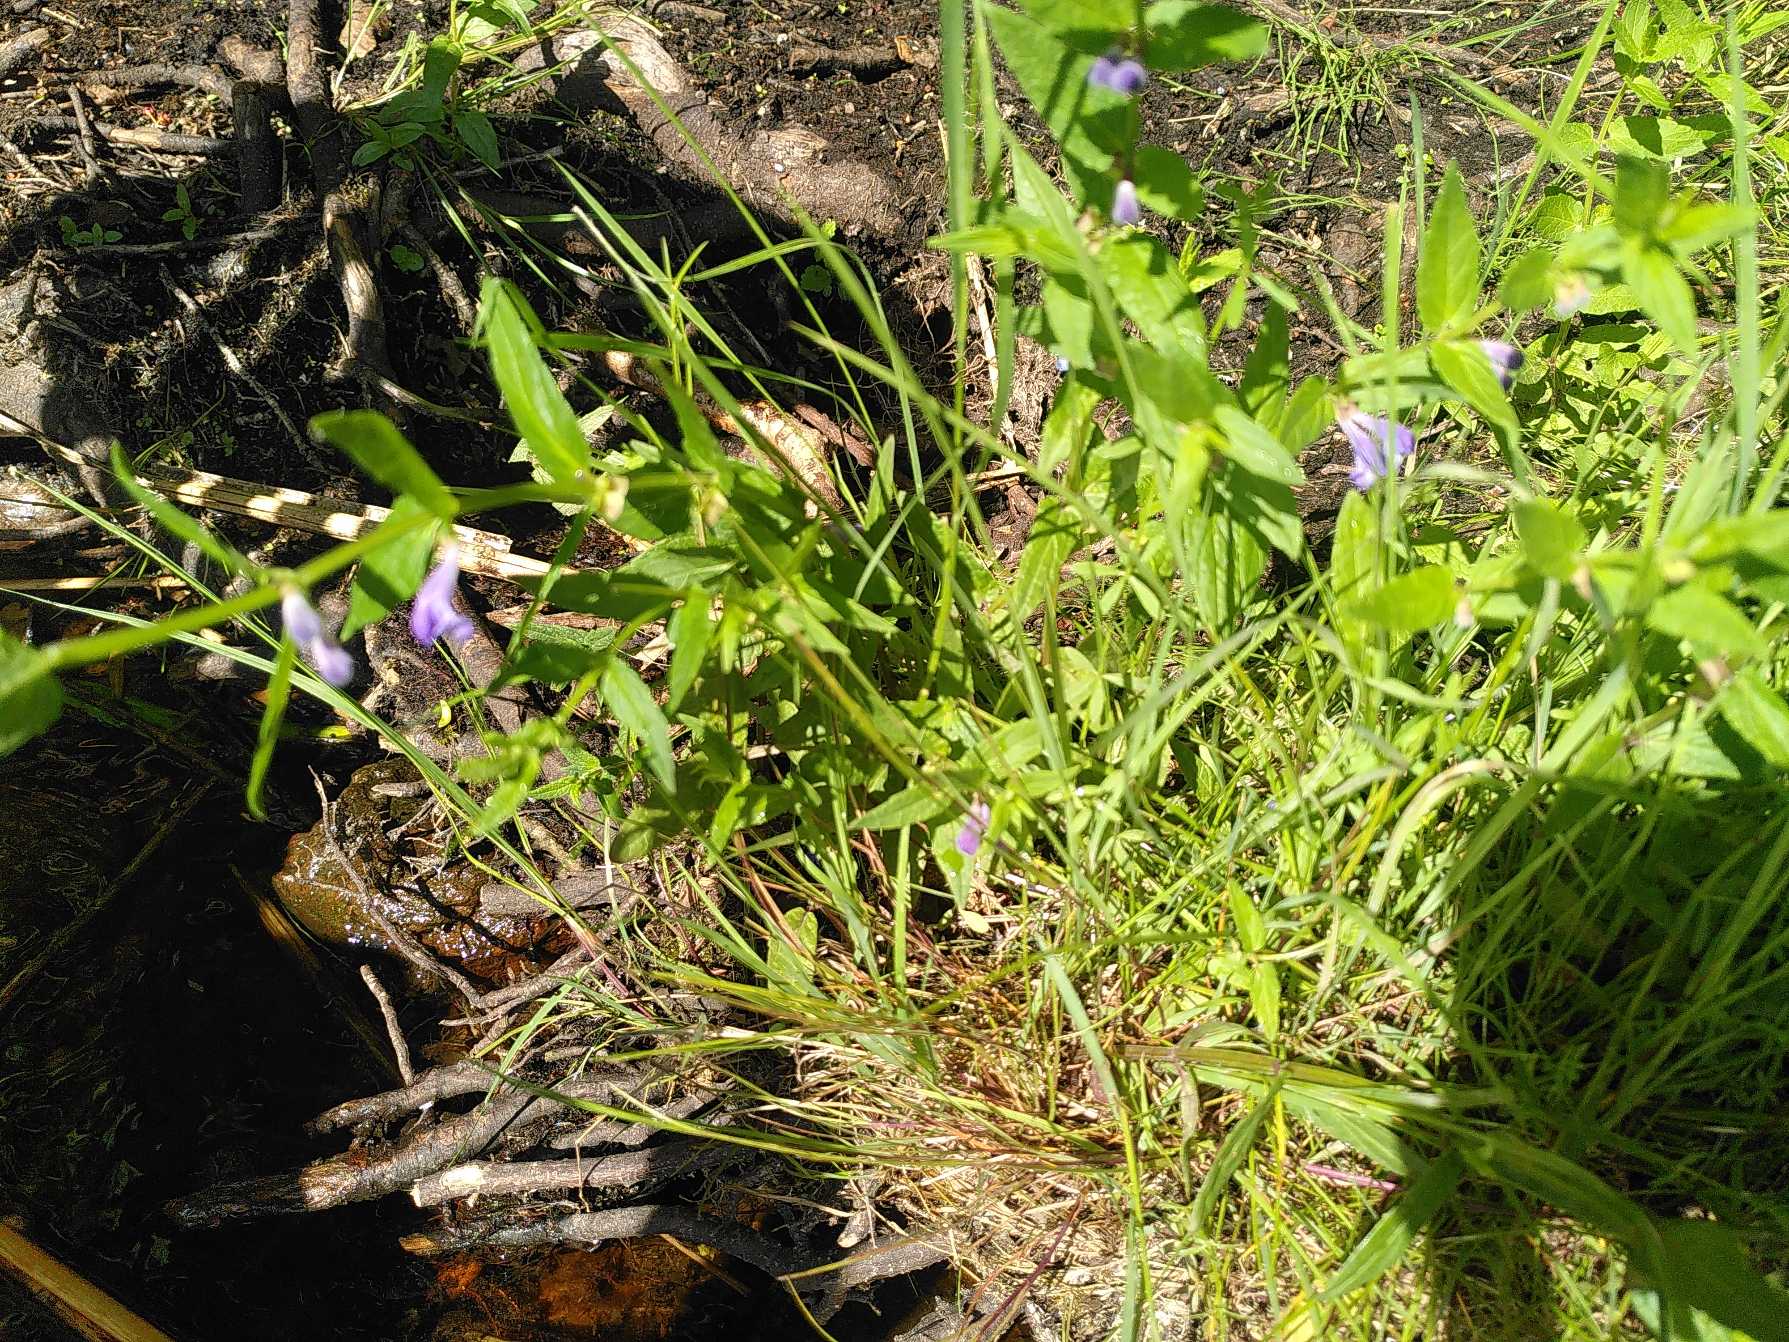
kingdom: Plantae
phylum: Tracheophyta
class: Magnoliopsida
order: Lamiales
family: Lamiaceae
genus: Scutellaria
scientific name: Scutellaria galericulata
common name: Almindelig skjolddrager
